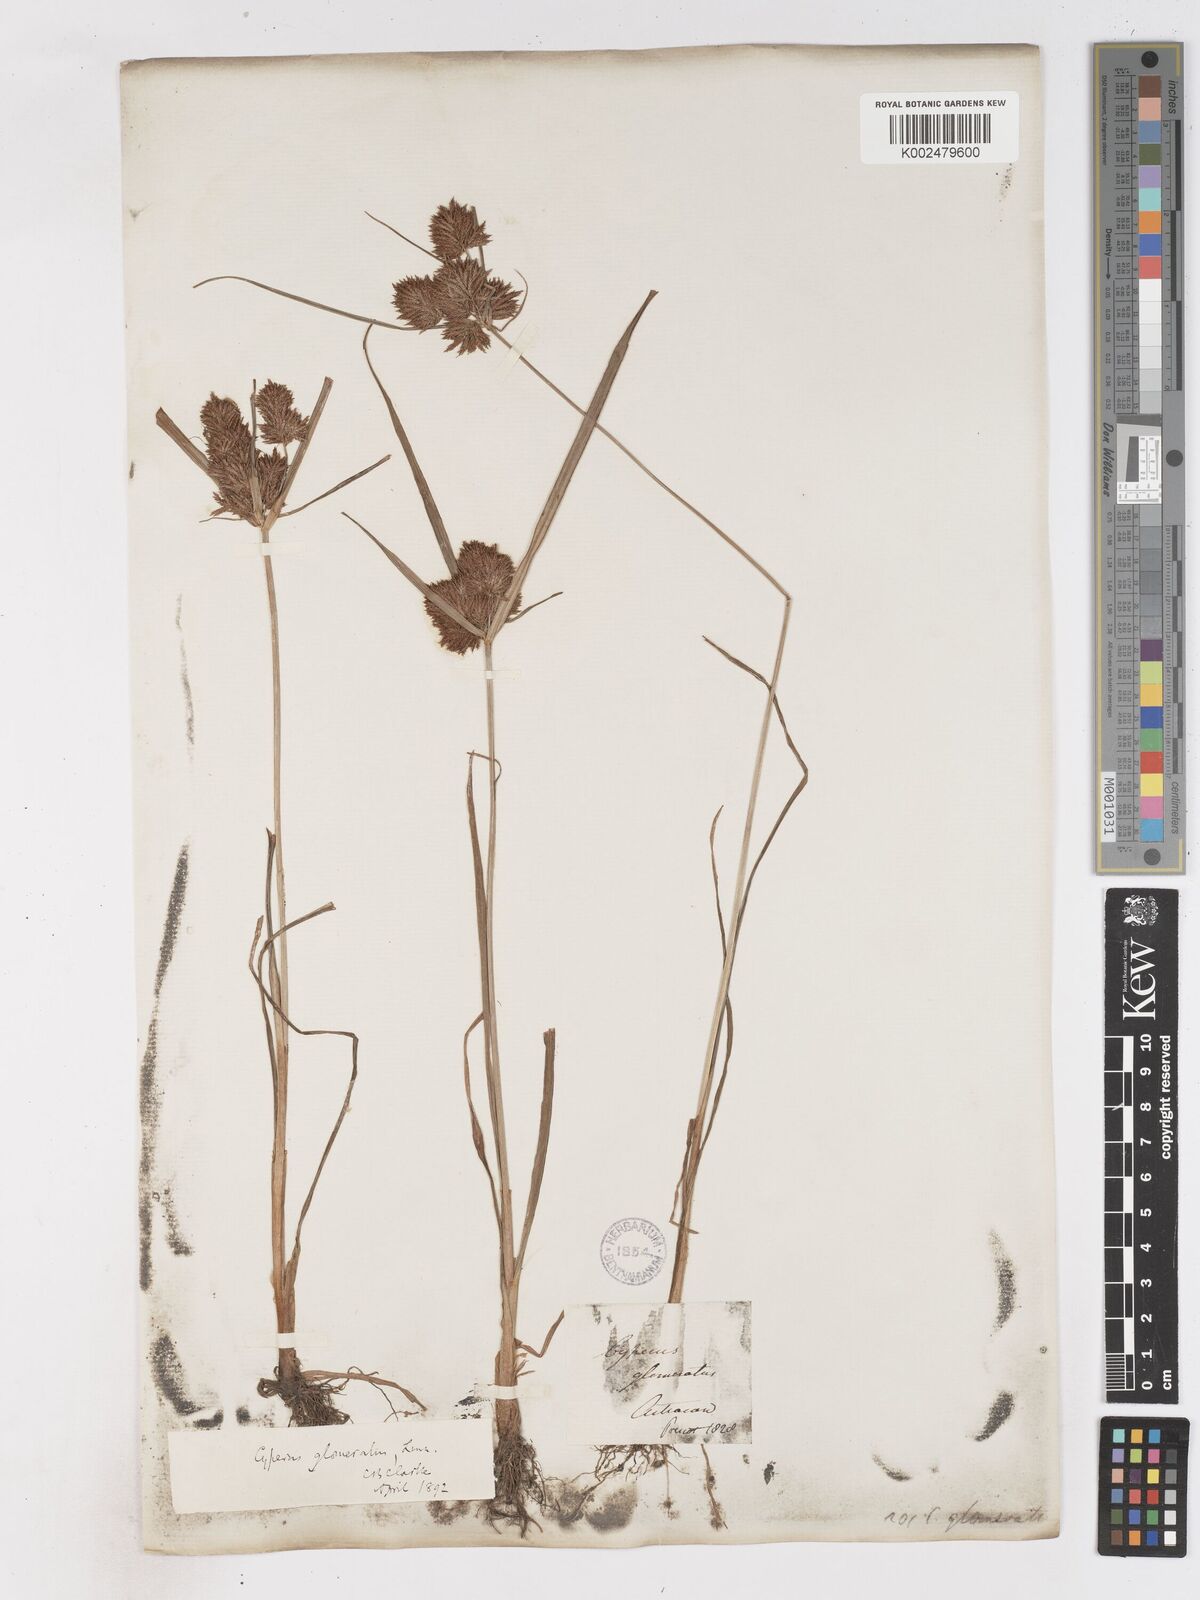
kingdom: Plantae
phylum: Tracheophyta
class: Liliopsida
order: Poales
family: Cyperaceae
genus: Cyperus
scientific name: Cyperus glomeratus
